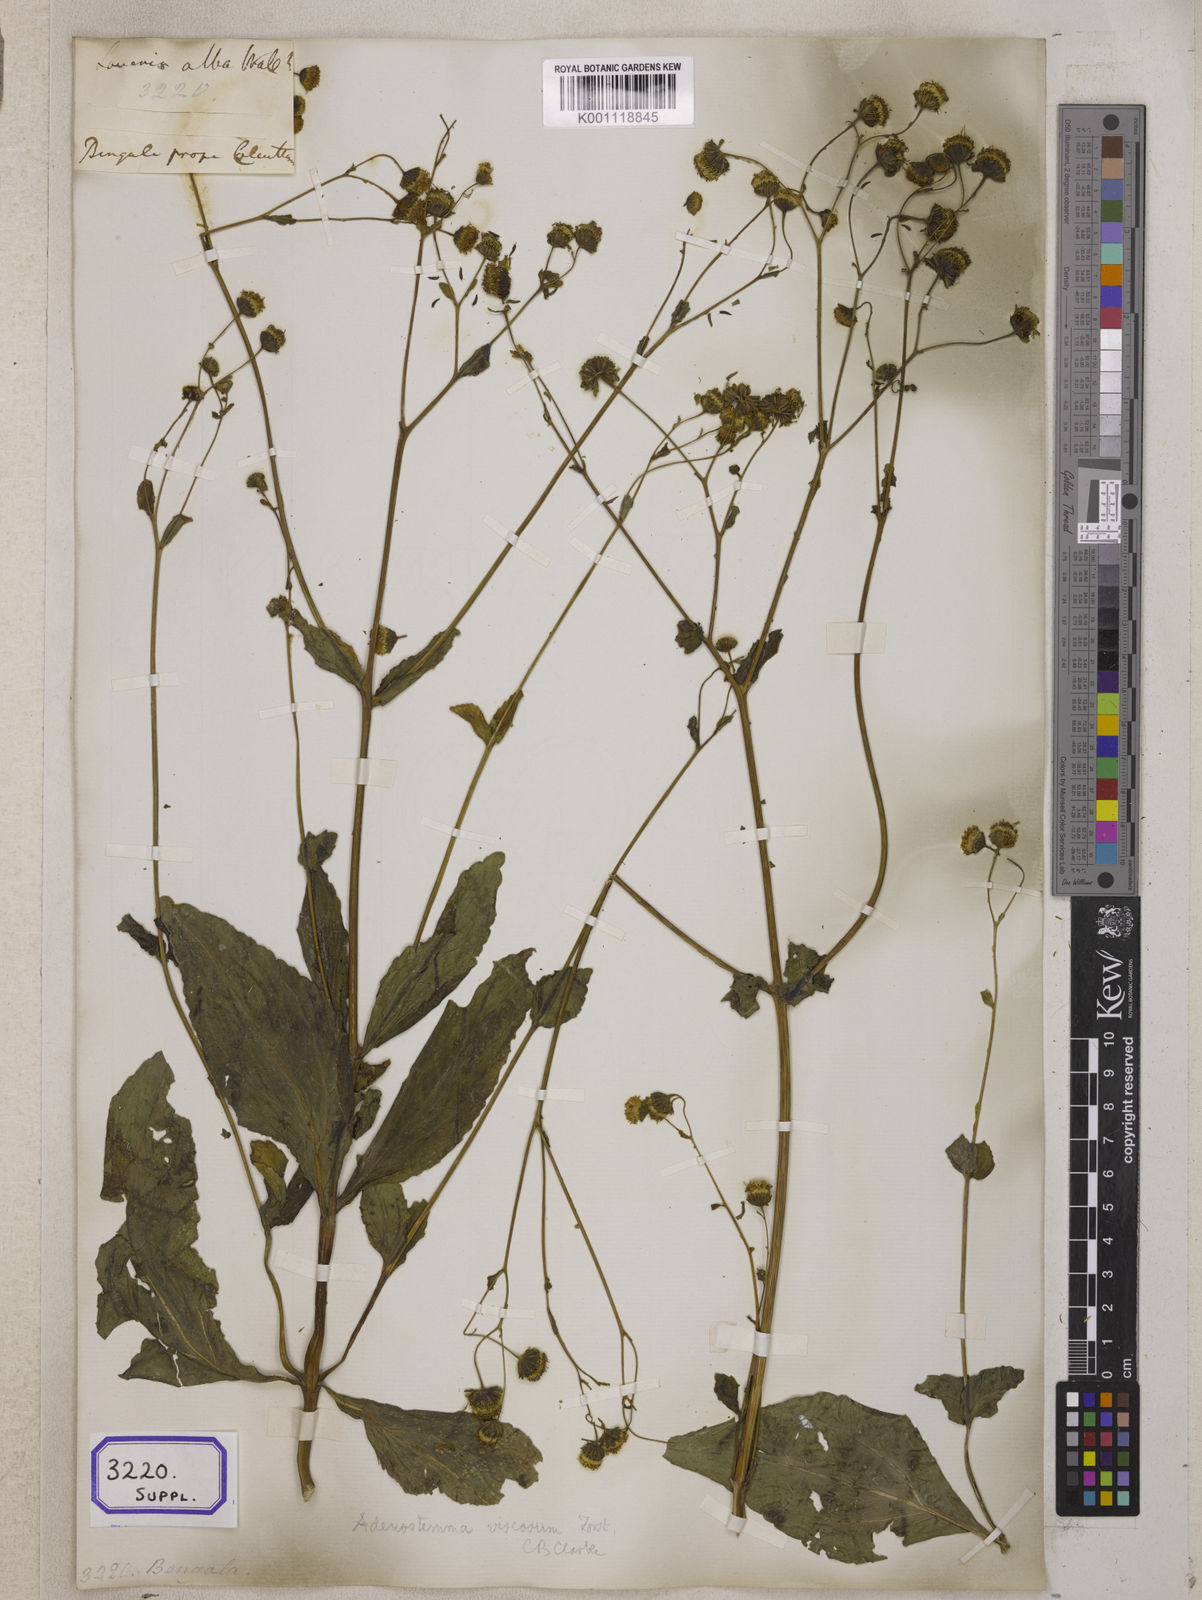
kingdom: Plantae
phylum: Tracheophyta
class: Magnoliopsida
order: Asterales
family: Asteraceae
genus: Adenostemma
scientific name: Adenostemma viscosum
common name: Dungweed
